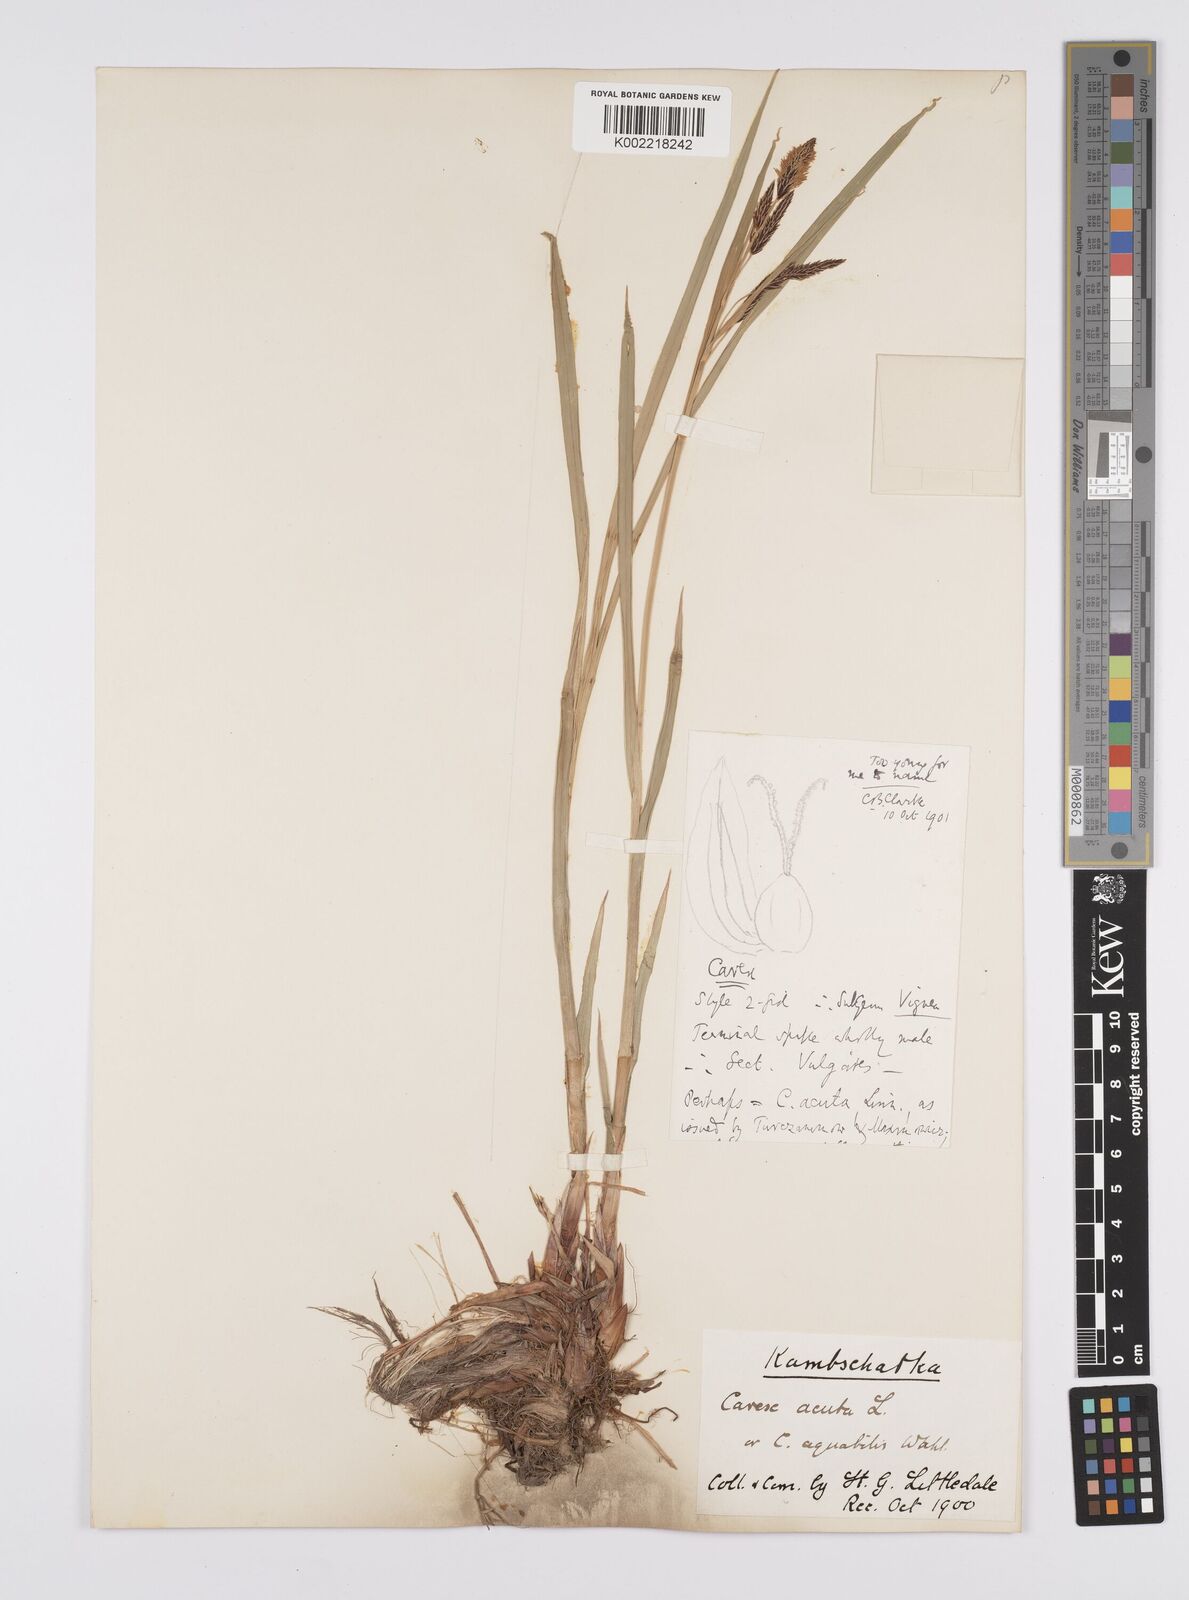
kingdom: Plantae
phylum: Tracheophyta
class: Liliopsida
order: Poales
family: Cyperaceae
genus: Carex
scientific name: Carex aquatilis
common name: Water sedge
